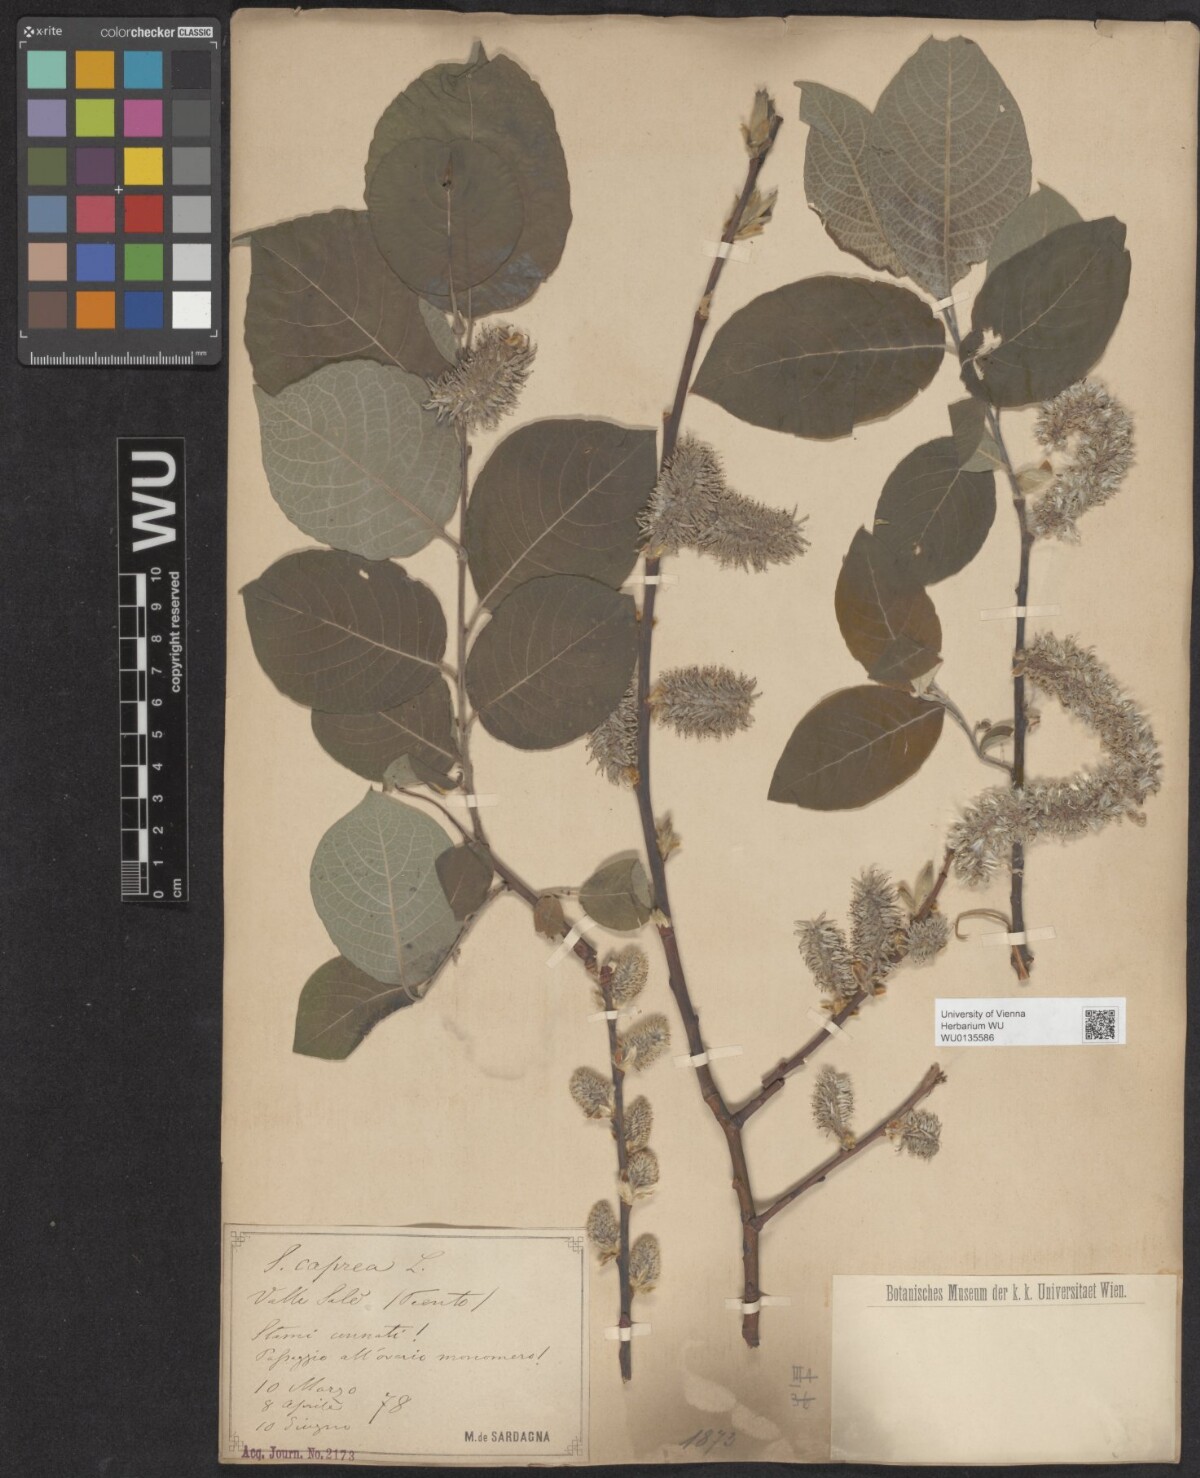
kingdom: Plantae
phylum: Tracheophyta
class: Magnoliopsida
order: Malpighiales
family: Salicaceae
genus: Salix
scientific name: Salix caprea
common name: Goat willow
